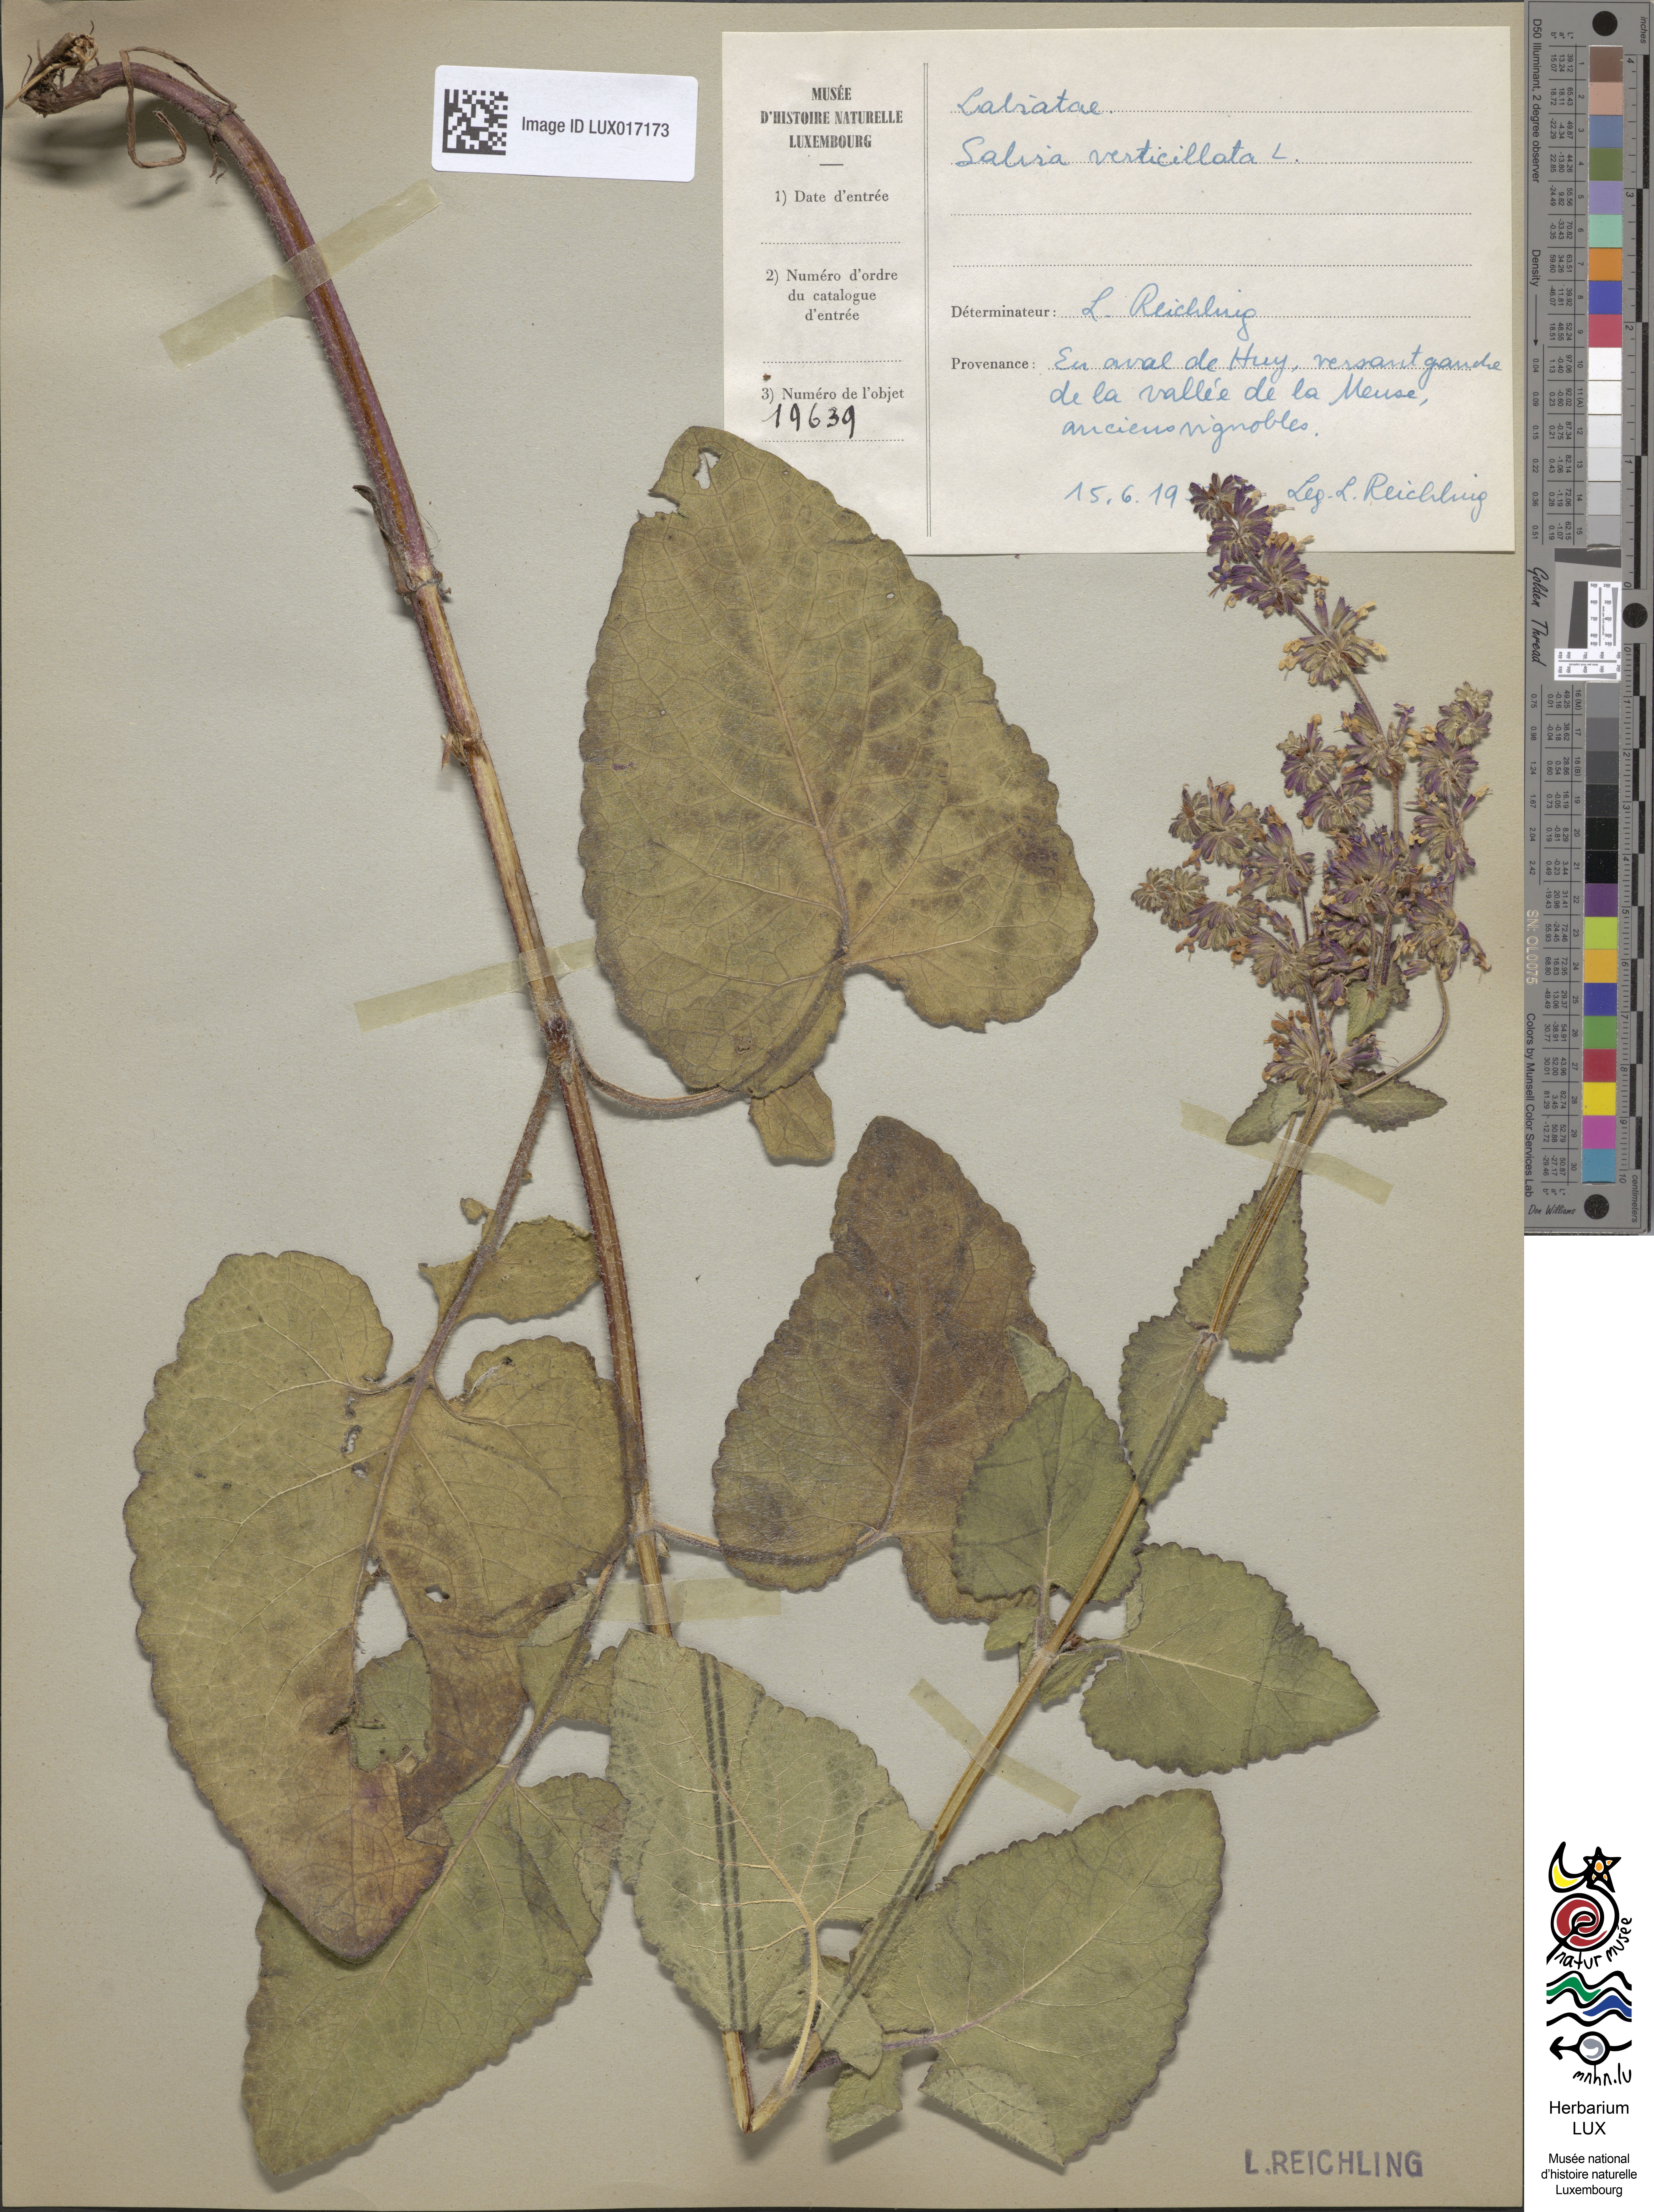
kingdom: Plantae
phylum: Tracheophyta
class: Magnoliopsida
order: Lamiales
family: Lamiaceae
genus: Salvia
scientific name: Salvia verticillata
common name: Whorled clary
